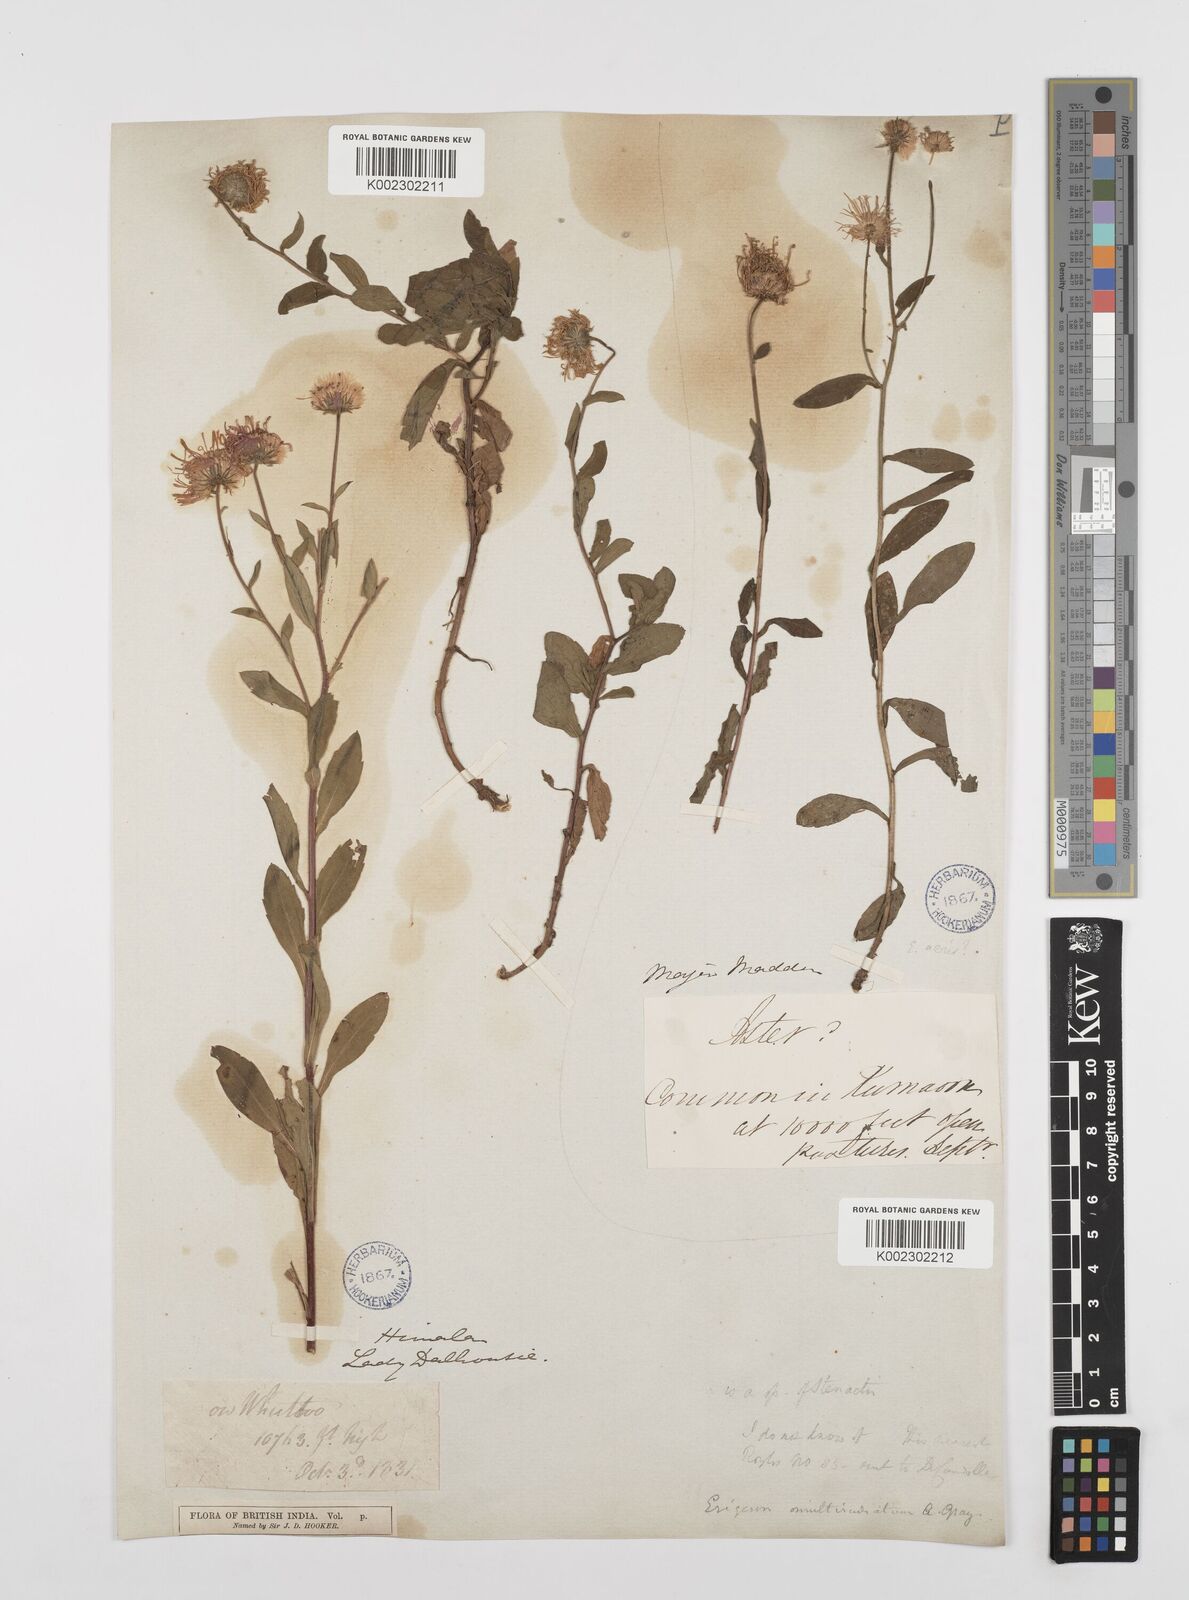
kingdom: Plantae
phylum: Tracheophyta
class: Magnoliopsida
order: Asterales
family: Asteraceae
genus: Erigeron
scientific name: Erigeron multiradiatus
